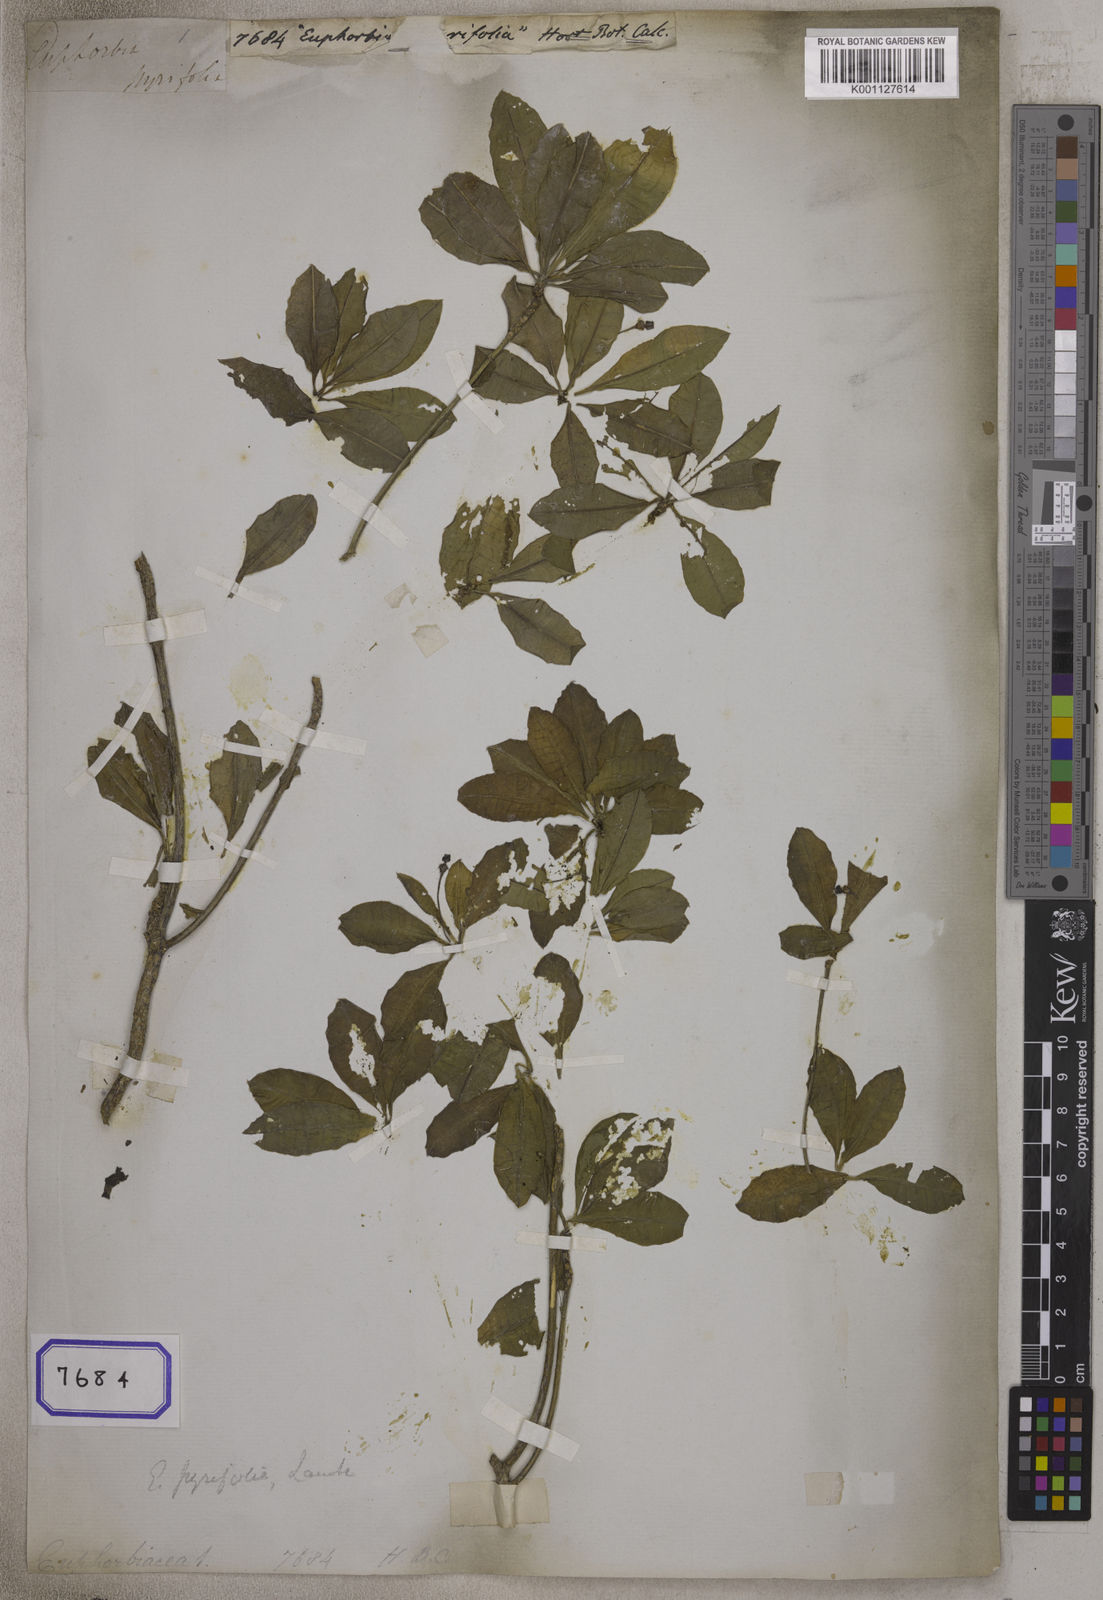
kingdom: Plantae
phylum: Tracheophyta
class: Magnoliopsida
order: Malpighiales
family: Euphorbiaceae
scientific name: Euphorbiaceae
